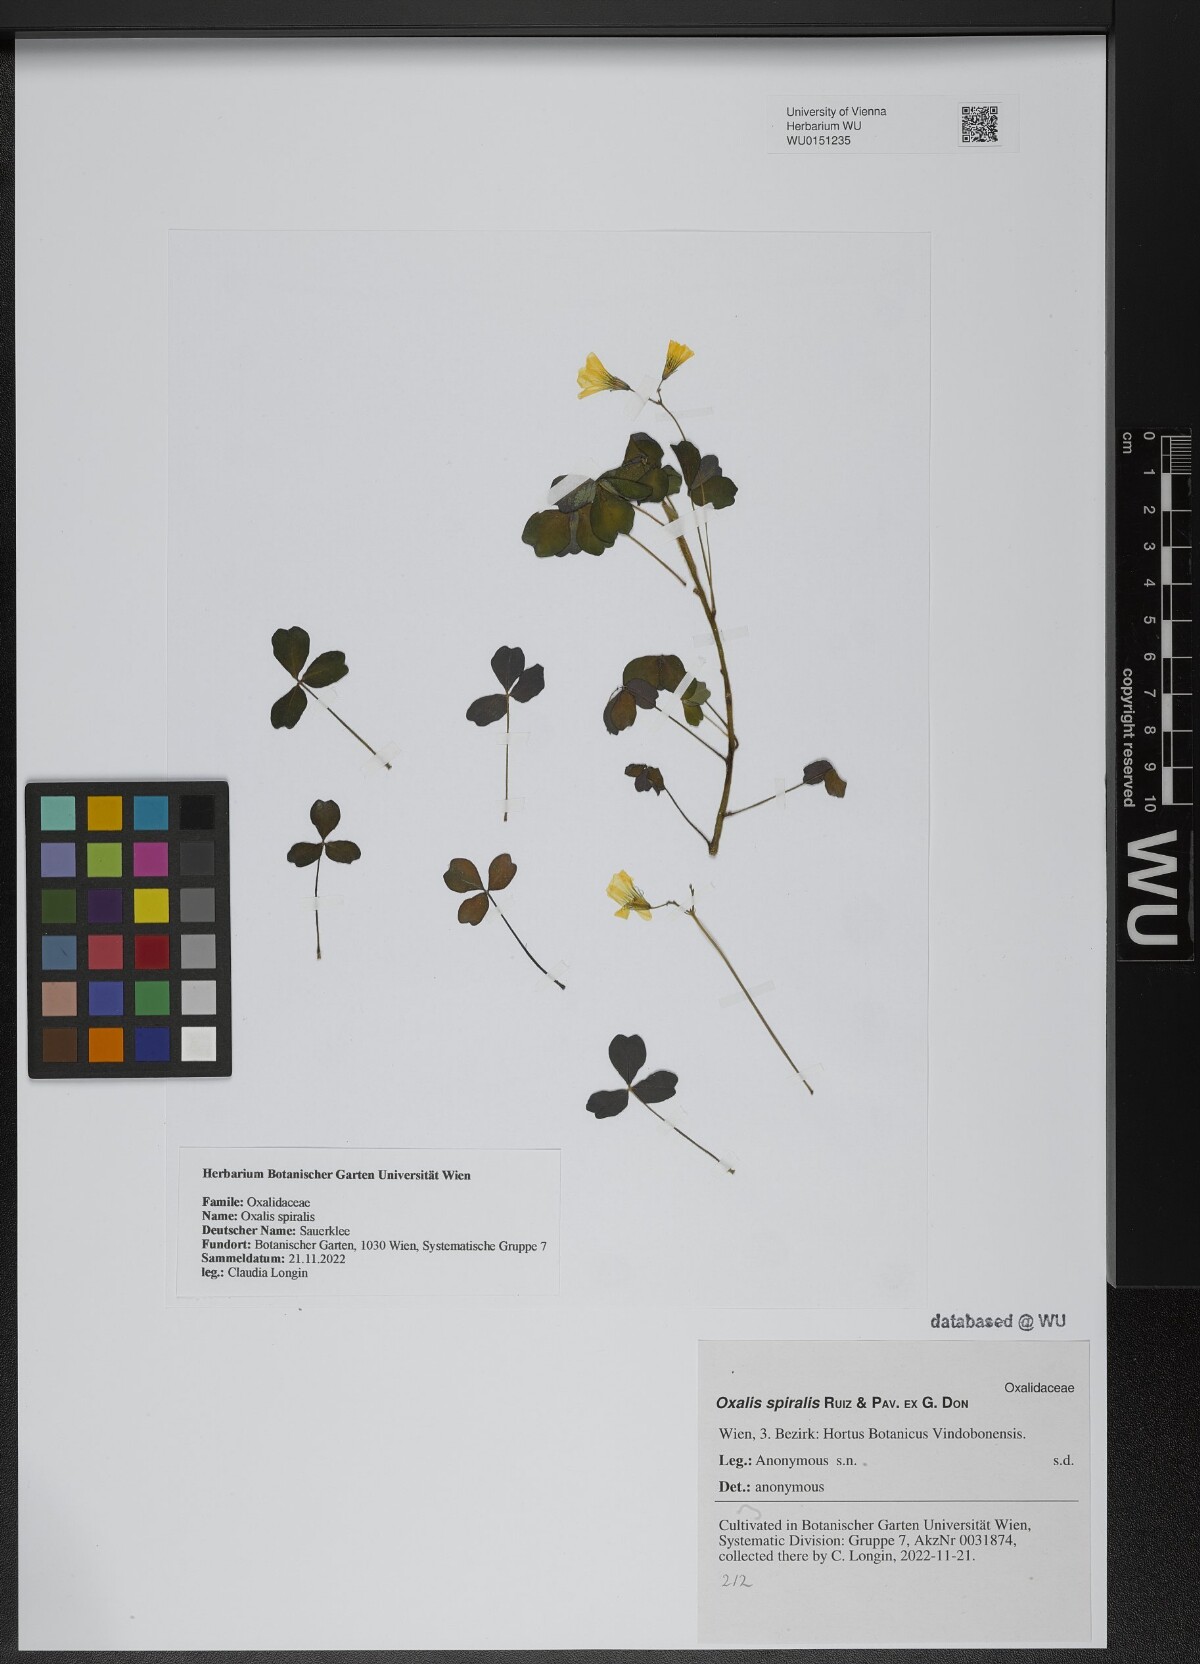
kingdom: Plantae
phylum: Tracheophyta
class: Magnoliopsida
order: Oxalidales
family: Oxalidaceae
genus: Oxalis
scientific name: Oxalis spiralis
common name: Spiral sorrel
